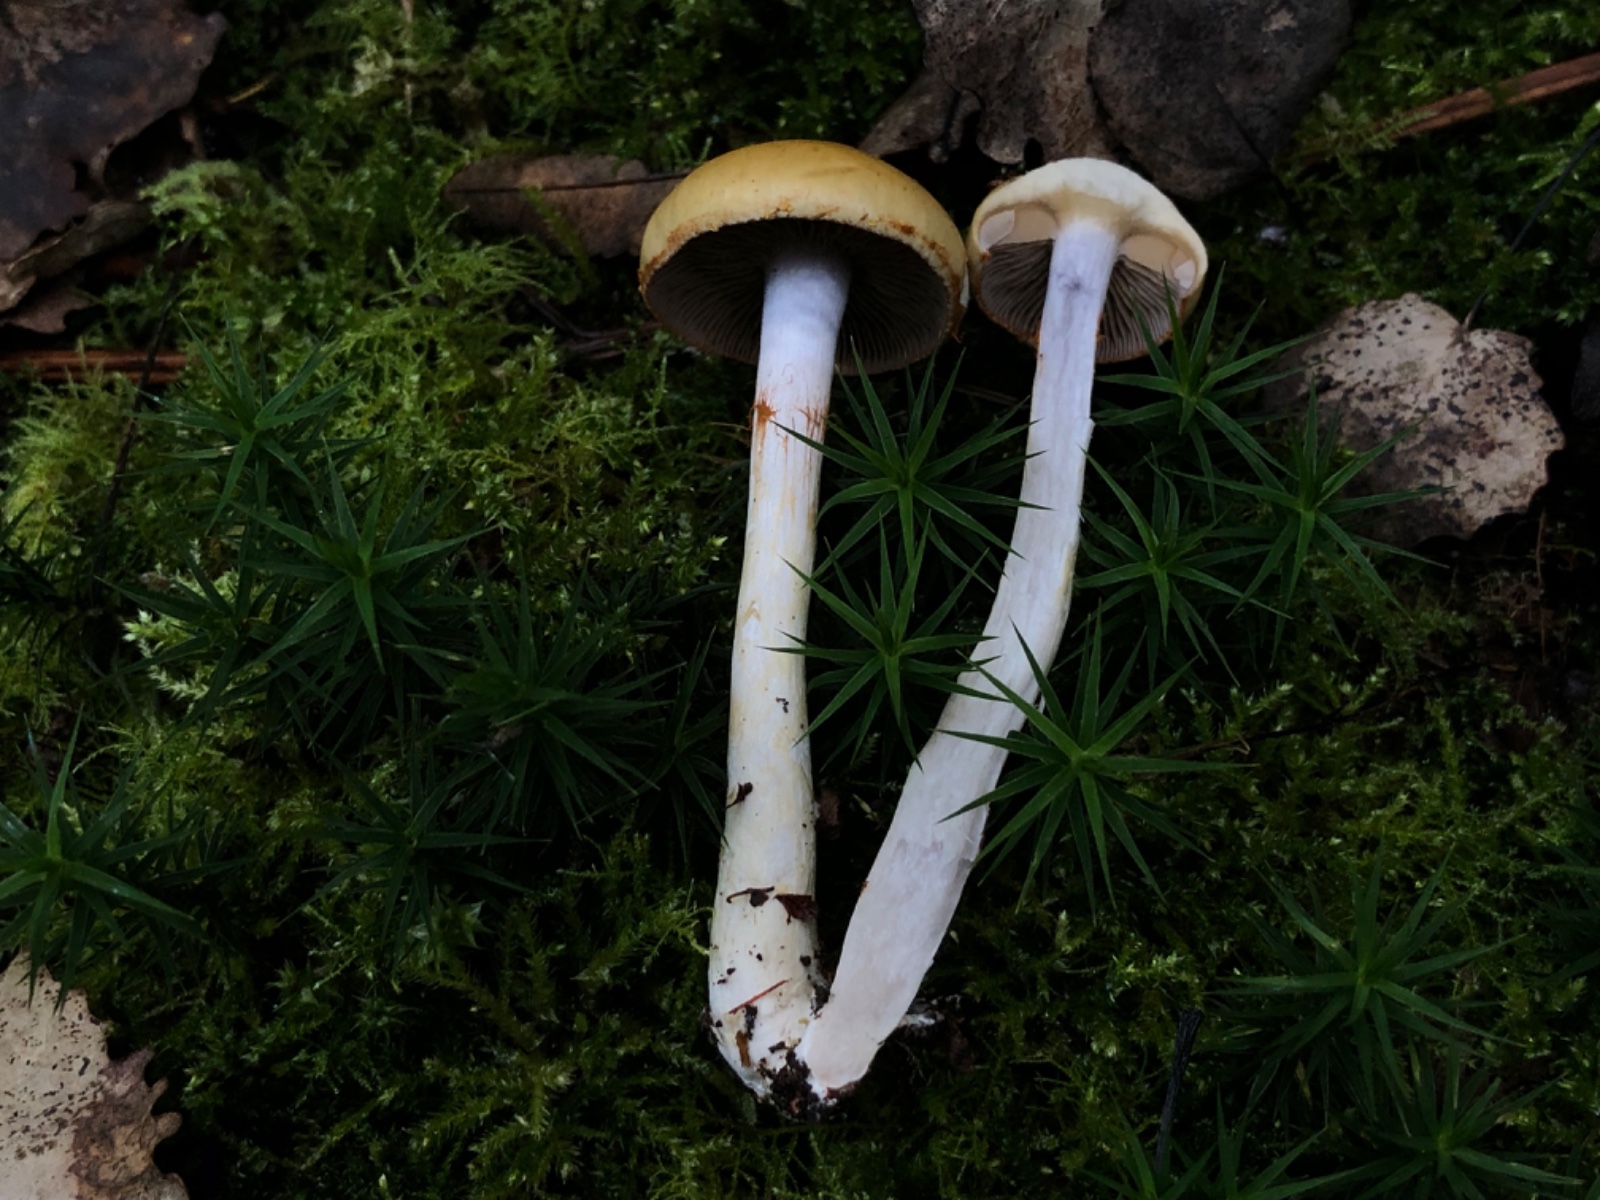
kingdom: Fungi
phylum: Basidiomycota
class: Agaricomycetes
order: Agaricales
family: Cortinariaceae
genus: Cortinarius
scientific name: Cortinarius
